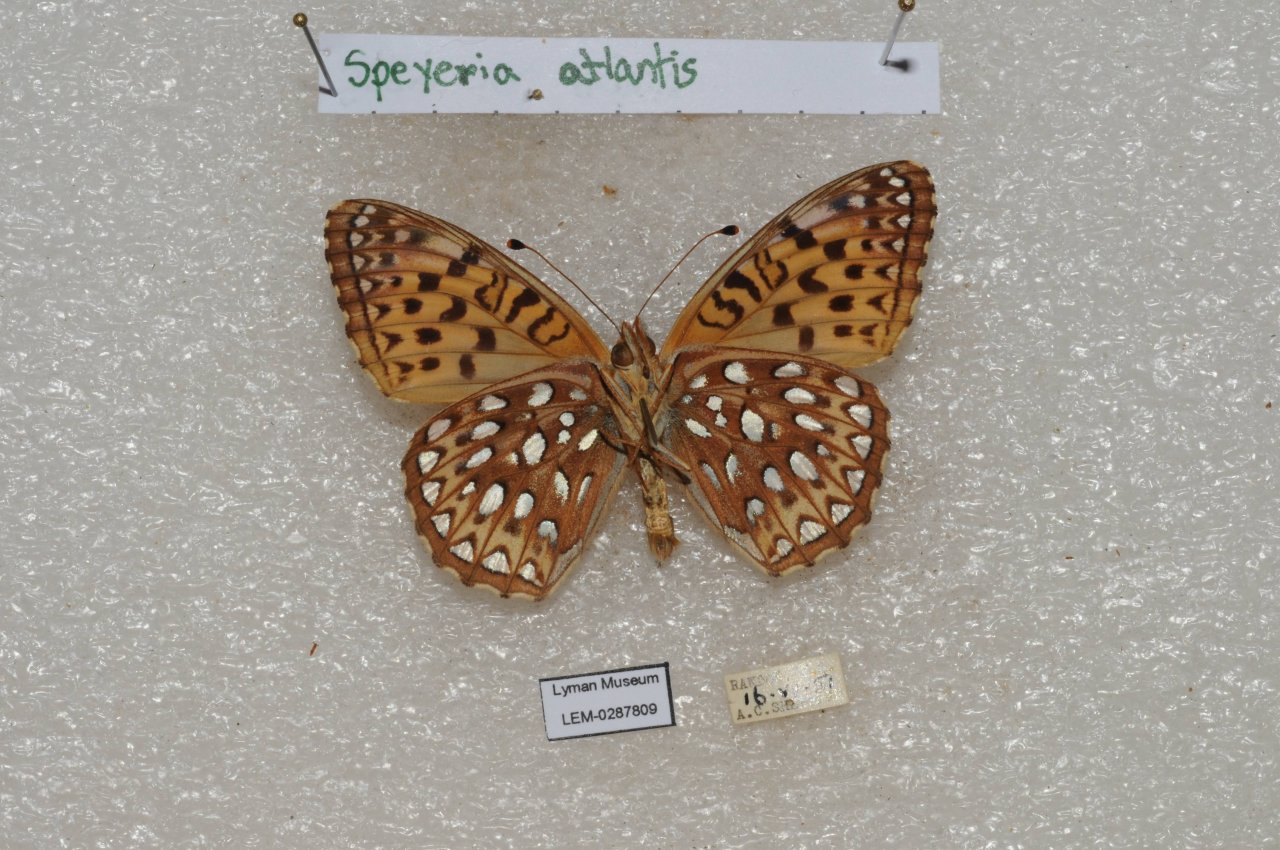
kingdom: Animalia
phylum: Arthropoda
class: Insecta
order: Lepidoptera
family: Nymphalidae
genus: Speyeria
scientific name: Speyeria atlantis
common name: Atlantis Fritillary
